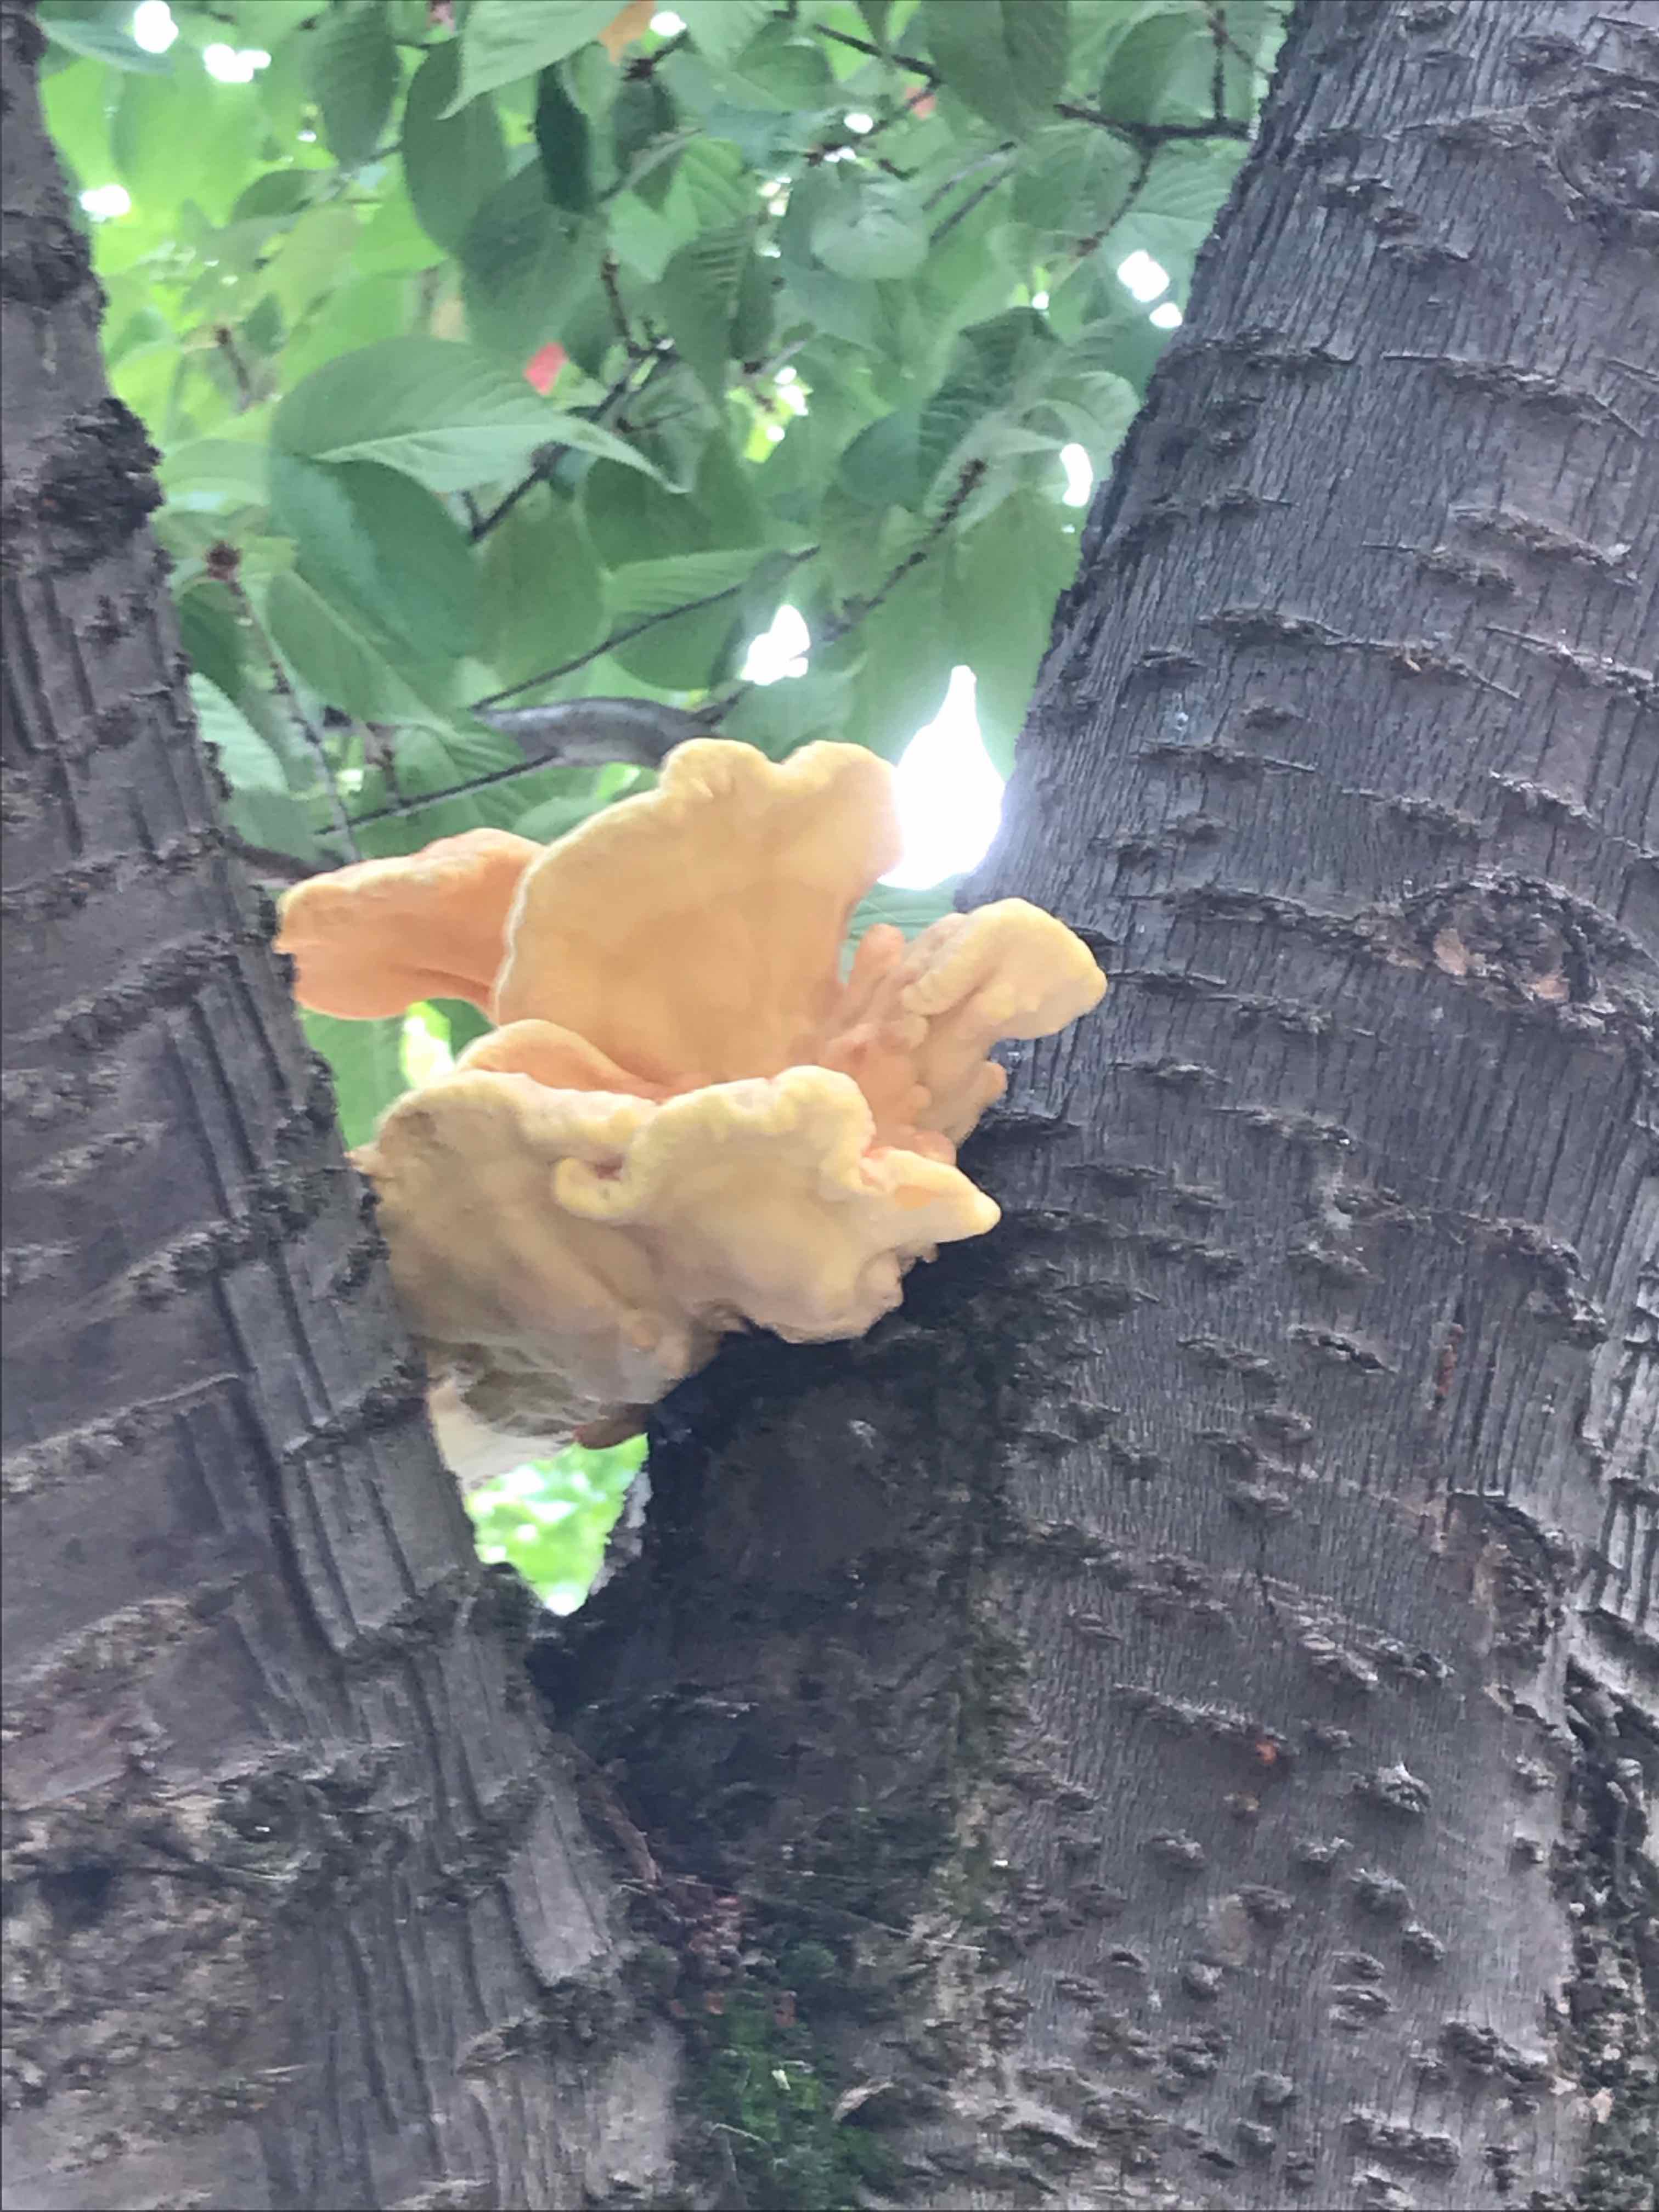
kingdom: Fungi
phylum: Basidiomycota
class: Agaricomycetes
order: Polyporales
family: Laetiporaceae
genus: Laetiporus
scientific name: Laetiporus sulphureus
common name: svovlporesvamp
